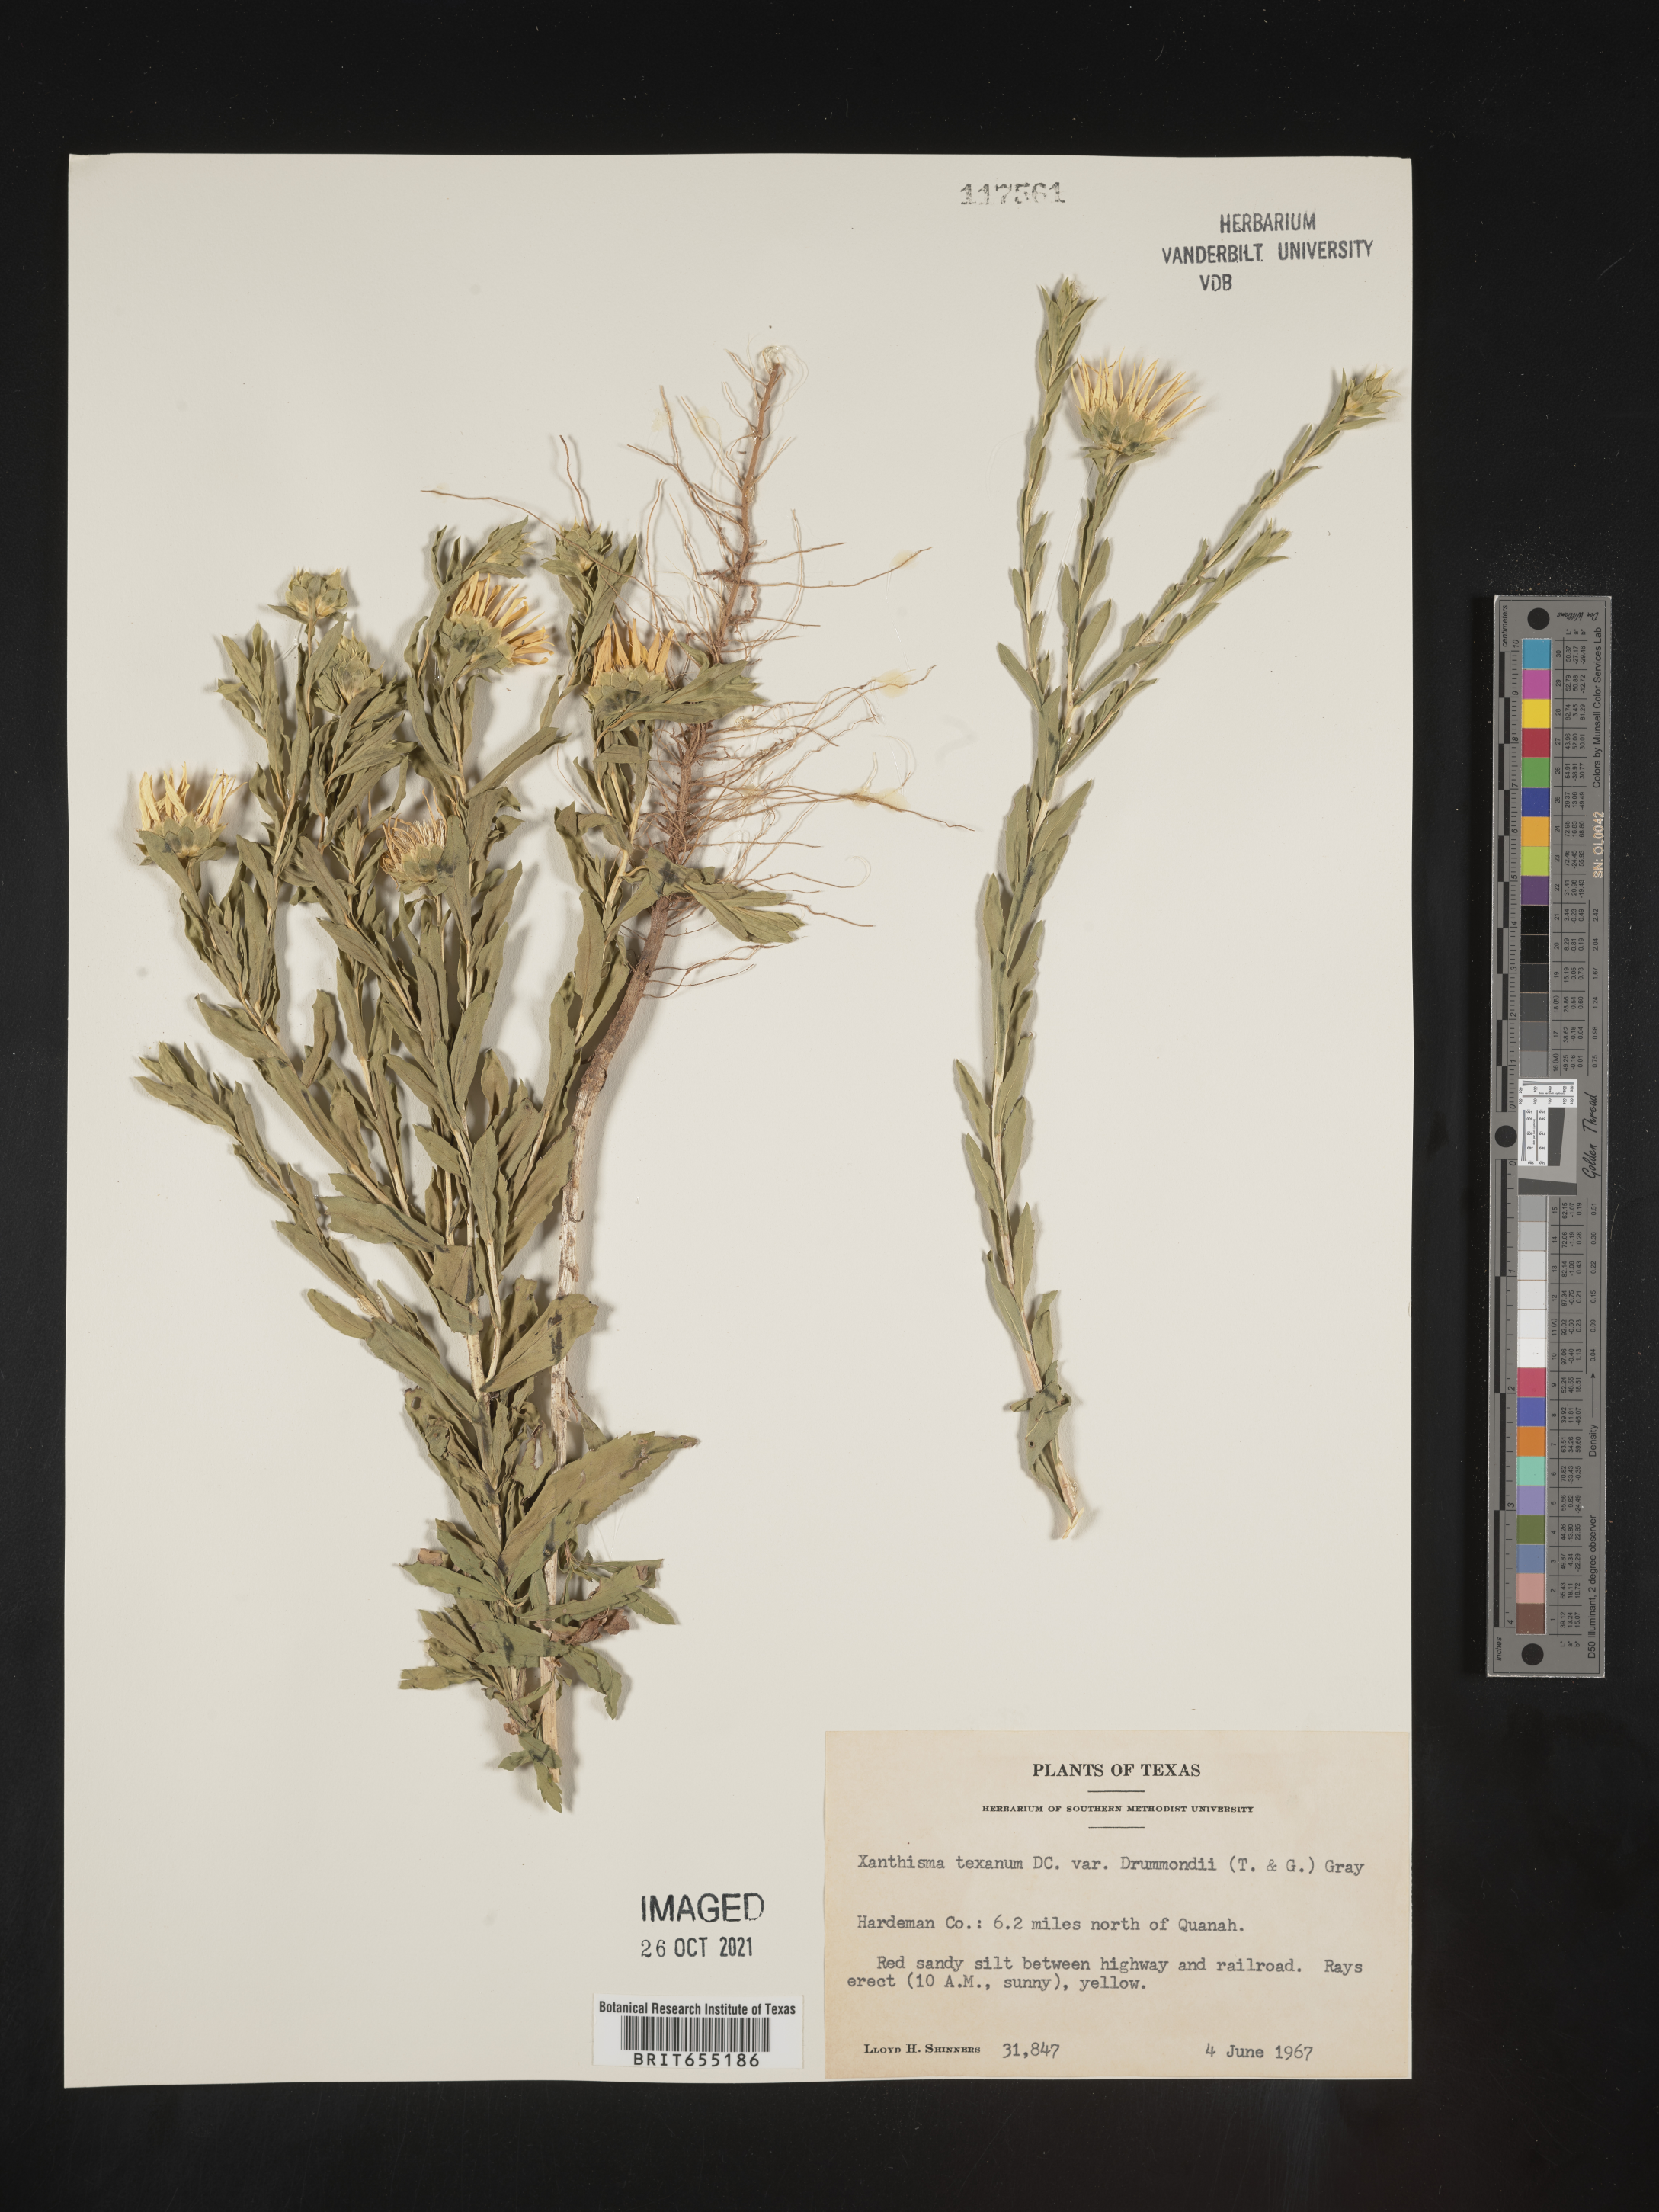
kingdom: Plantae
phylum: Tracheophyta
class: Magnoliopsida
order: Asterales
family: Asteraceae
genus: Xanthisma
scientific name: Xanthisma texanum
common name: Texas sleepy daisy
